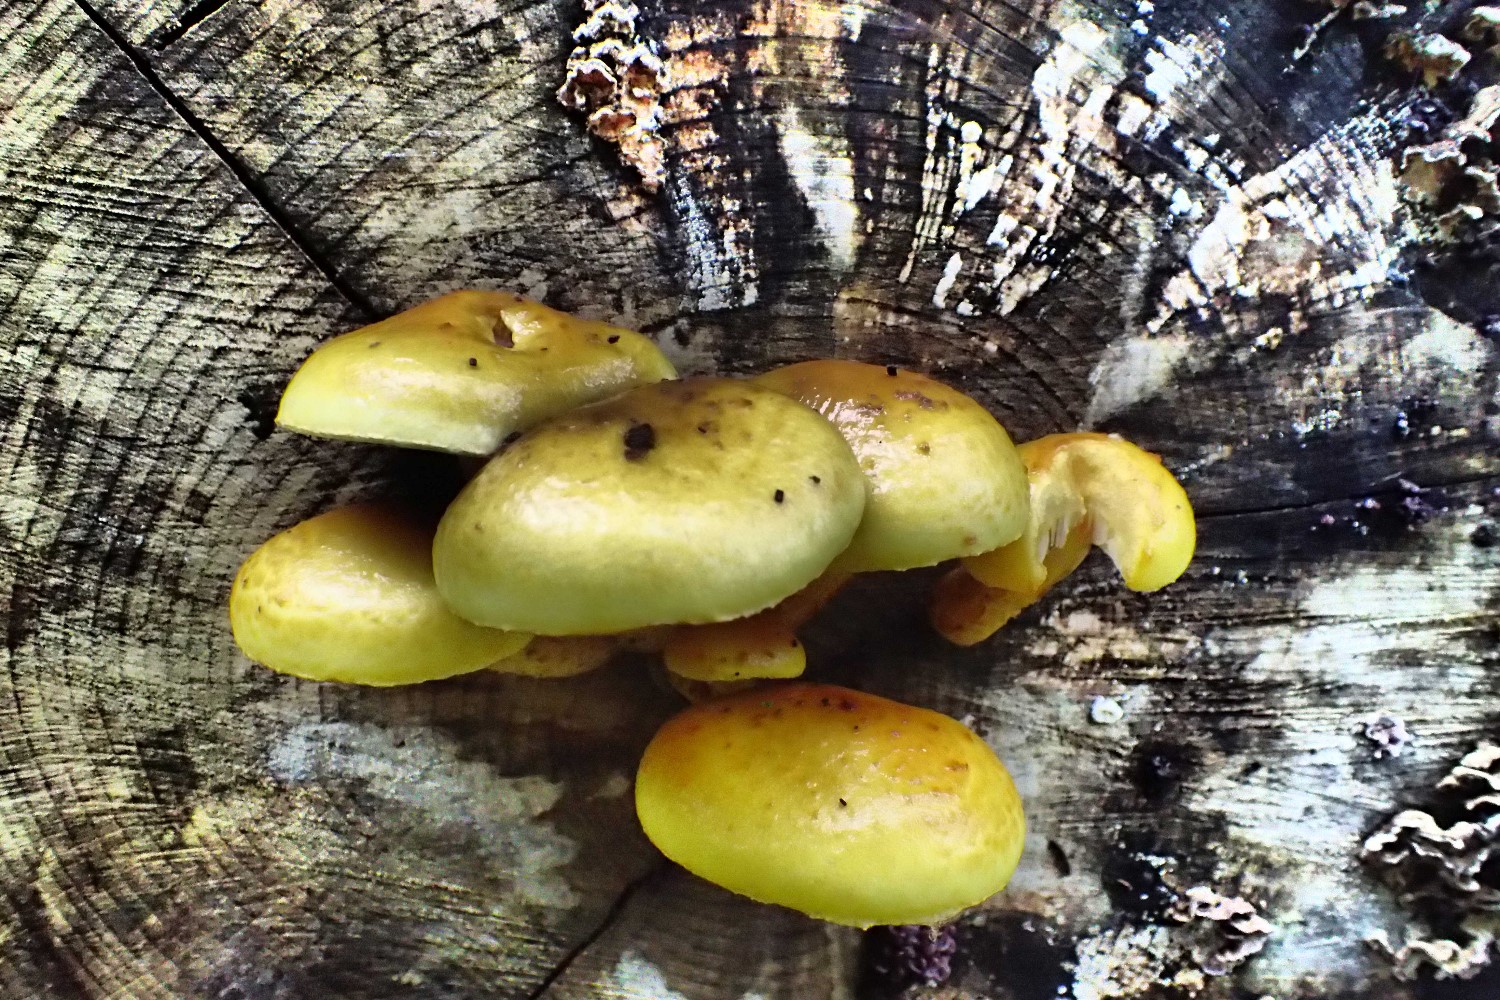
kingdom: Fungi
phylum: Basidiomycota
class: Agaricomycetes
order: Agaricales
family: Strophariaceae
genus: Pholiota
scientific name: Pholiota adiposa
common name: højtsiddende skælhat
